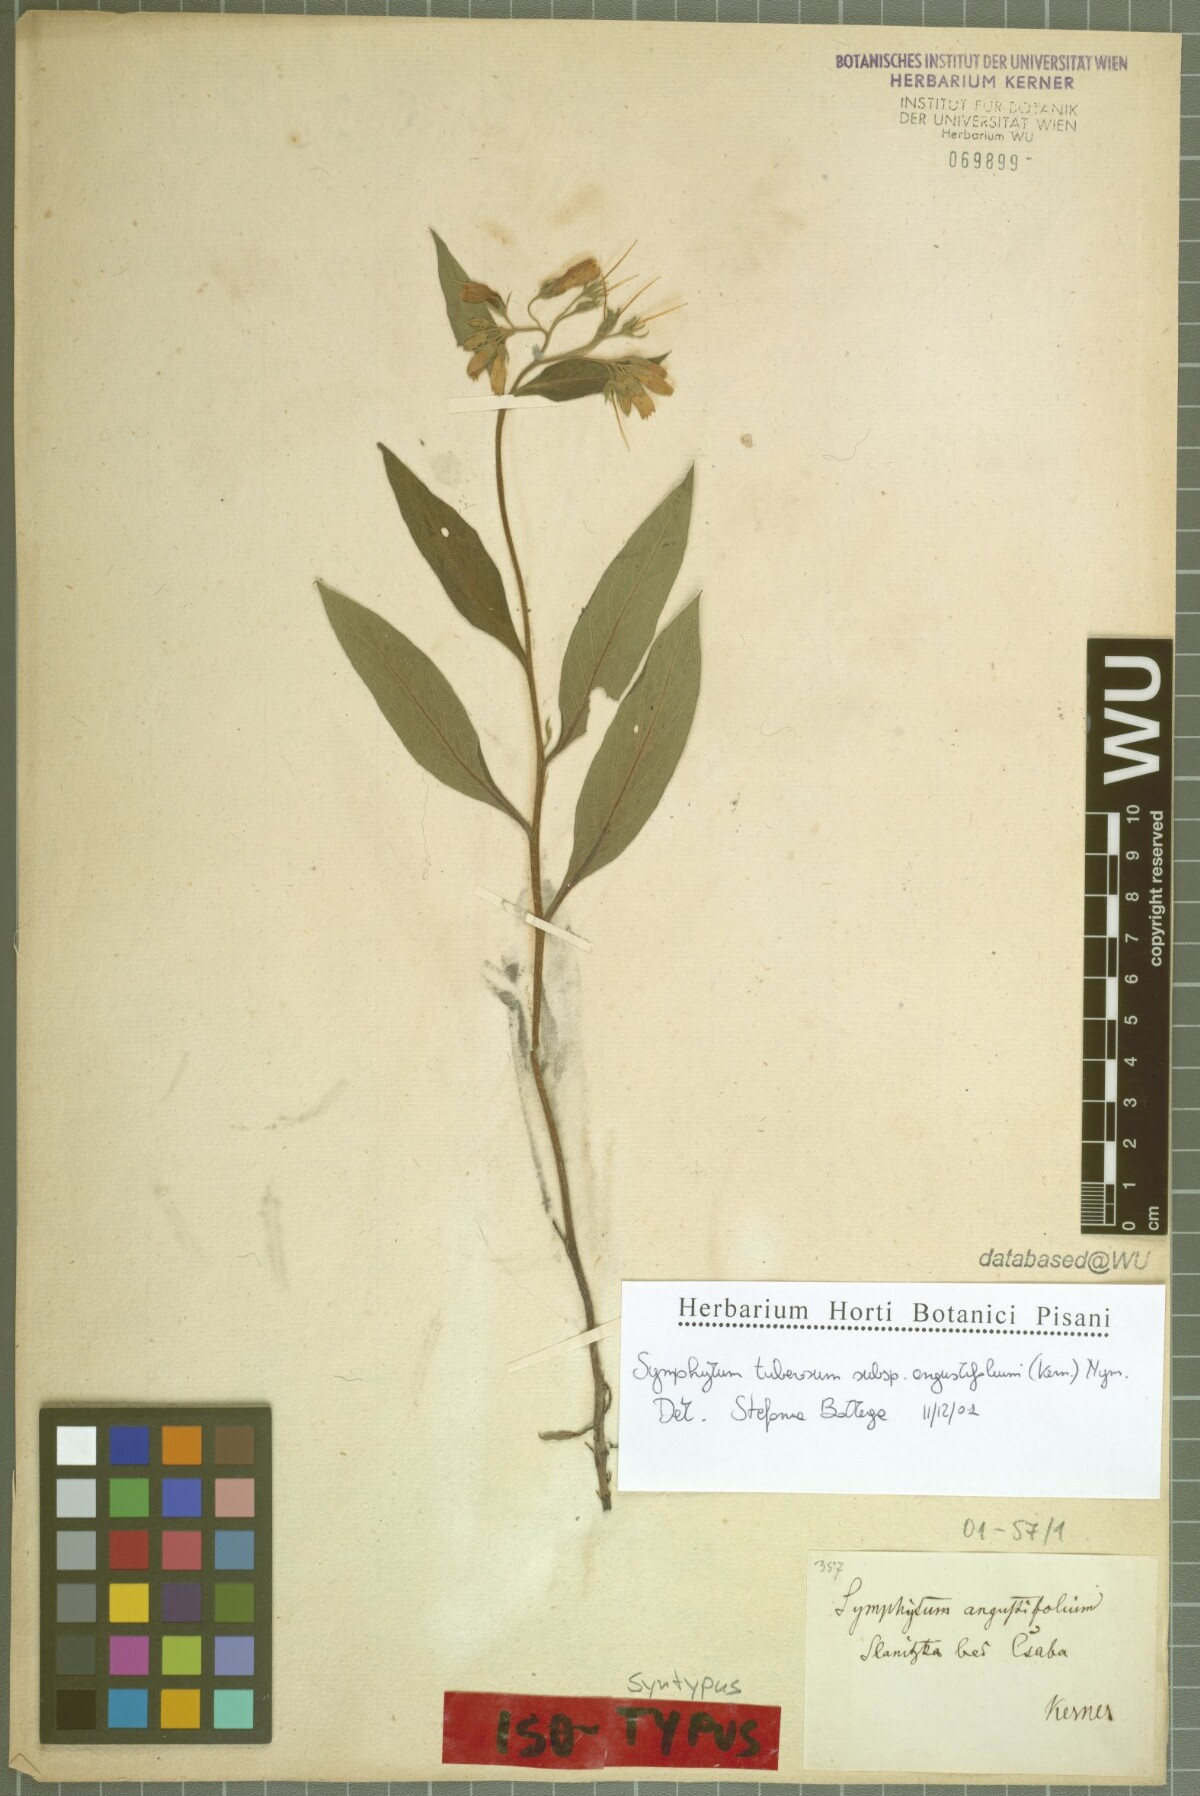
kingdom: Plantae
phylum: Tracheophyta
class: Magnoliopsida
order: Boraginales
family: Boraginaceae
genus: Symphytum
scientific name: Symphytum tuberosum
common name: Tuberous comfrey
